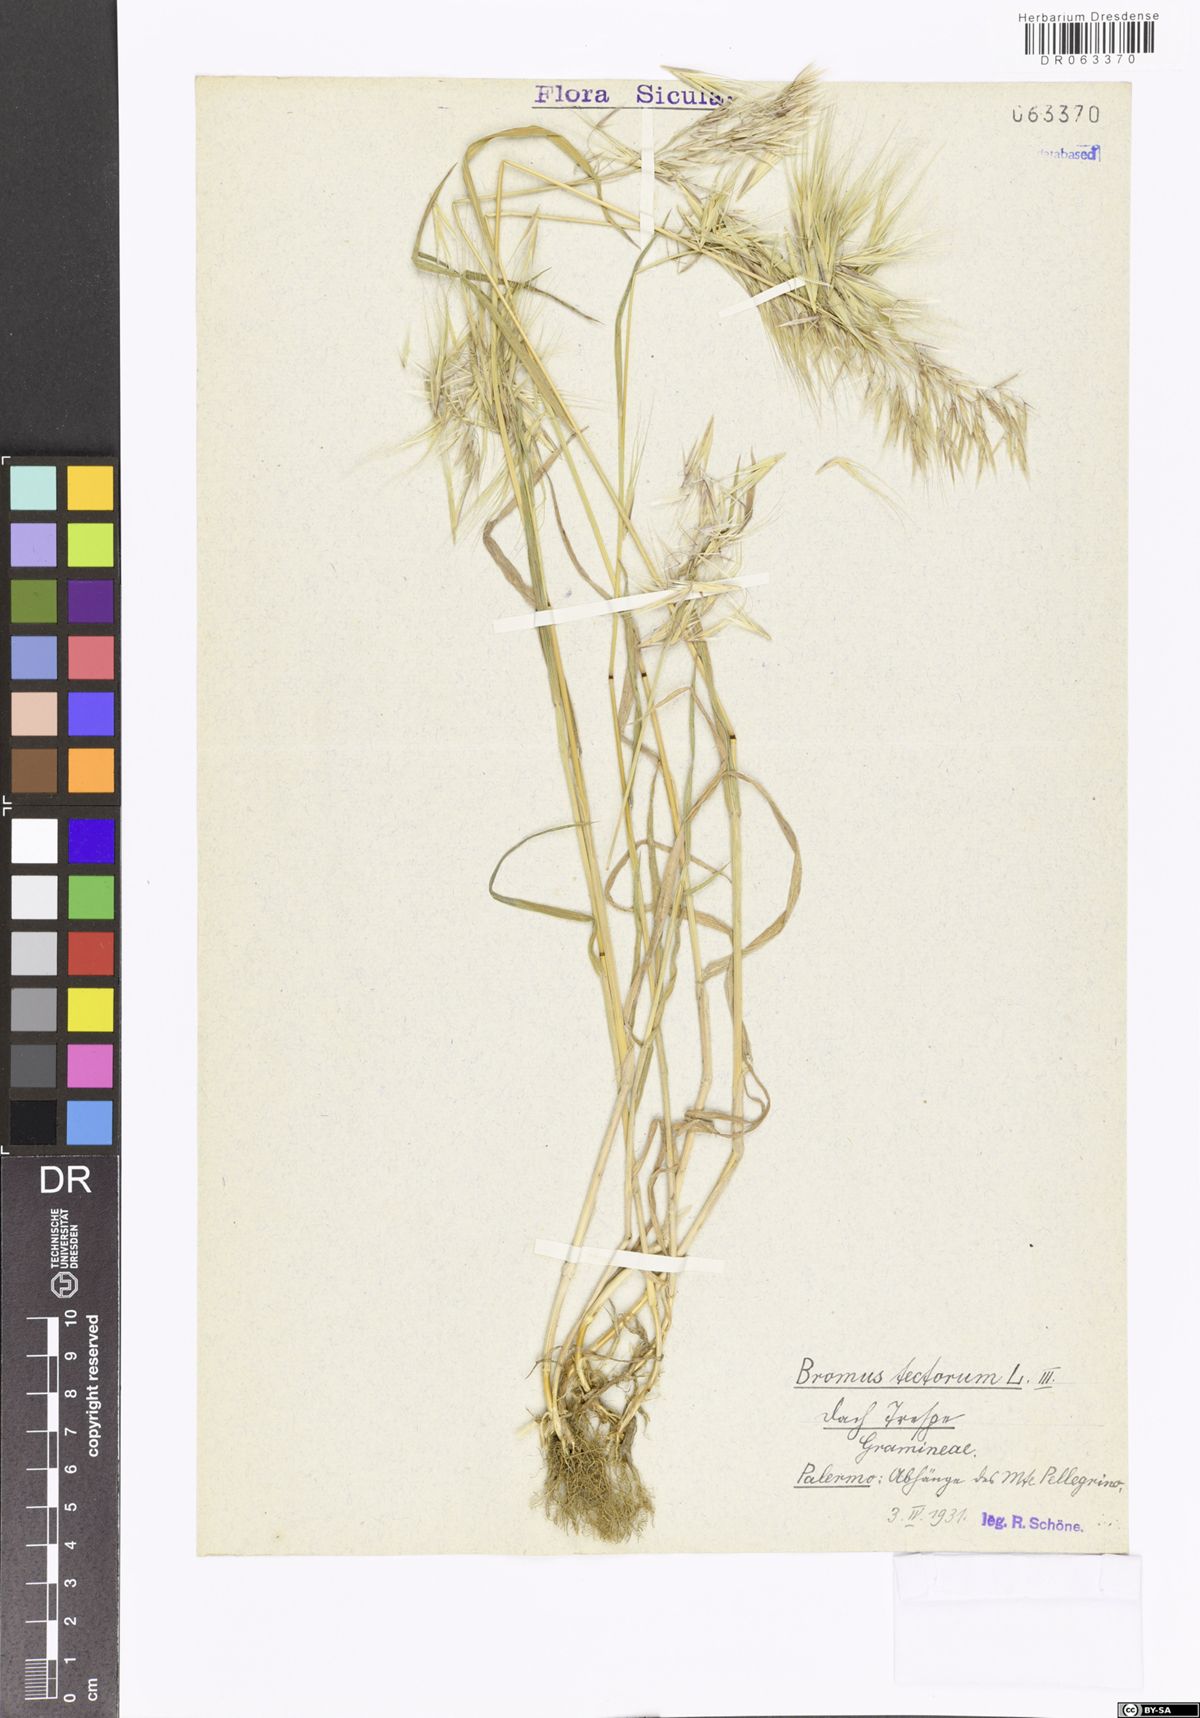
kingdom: Plantae
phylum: Tracheophyta
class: Liliopsida
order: Poales
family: Poaceae
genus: Bromus
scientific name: Bromus tectorum
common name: Cheatgrass
